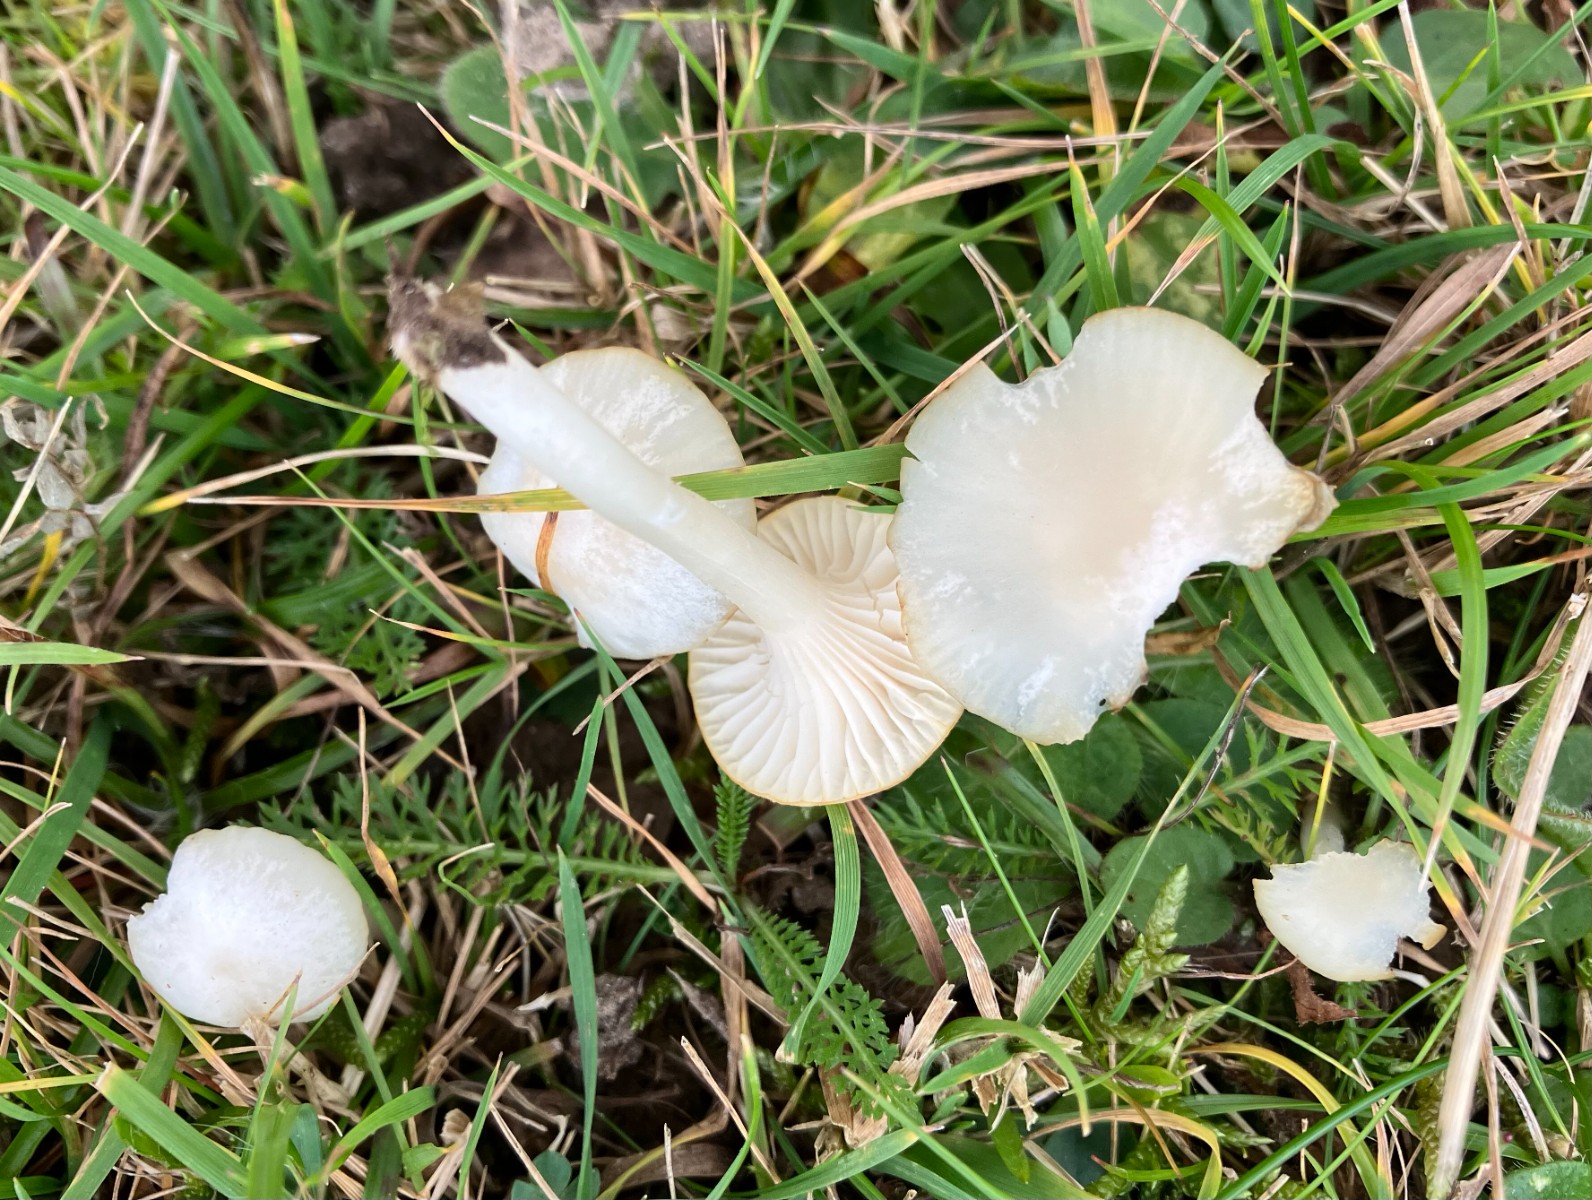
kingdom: Fungi
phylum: Basidiomycota
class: Agaricomycetes
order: Agaricales
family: Hygrophoraceae
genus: Cuphophyllus
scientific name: Cuphophyllus virgineus
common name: snehvid vokshat
